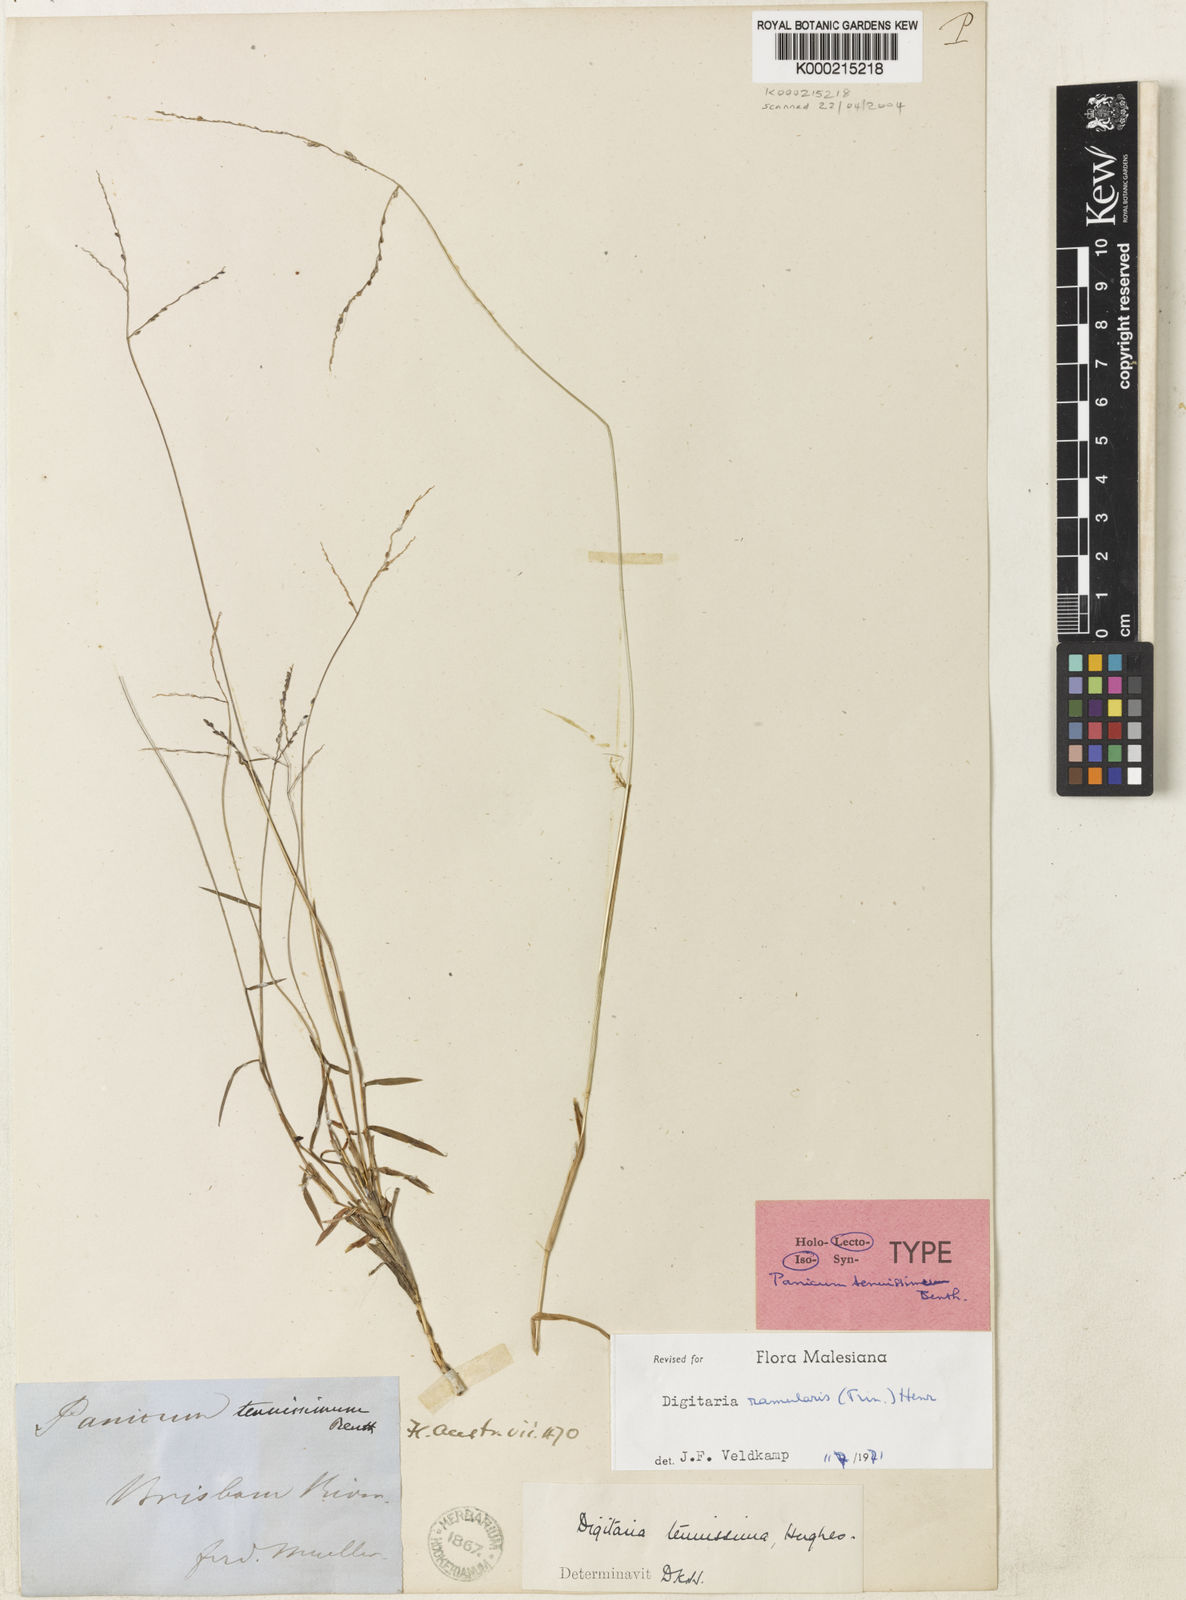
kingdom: Plantae
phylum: Tracheophyta
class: Liliopsida
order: Poales
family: Poaceae
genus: Digitaria
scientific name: Digitaria ramularis
